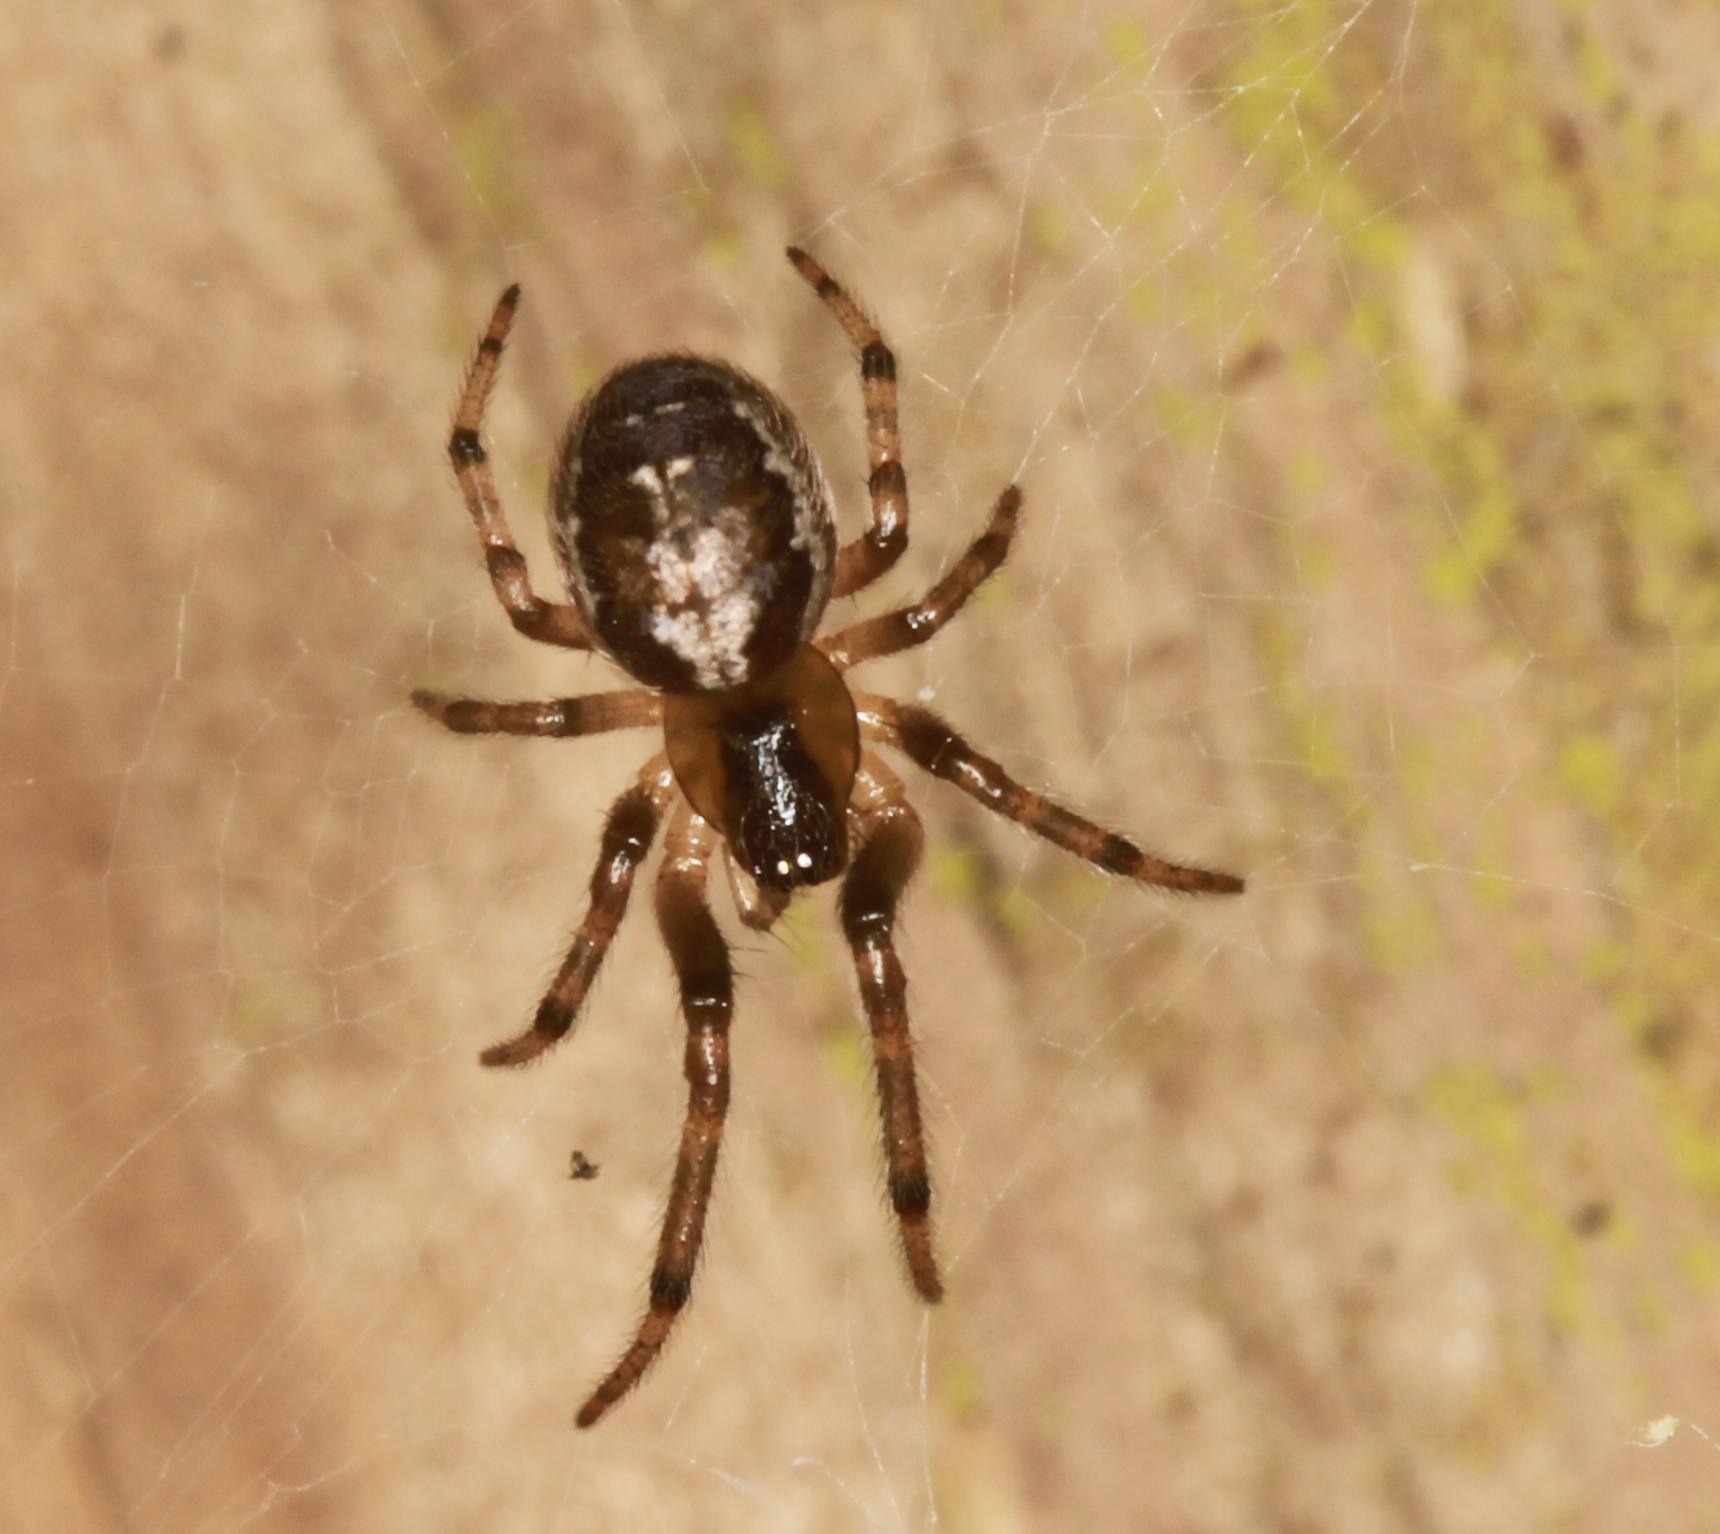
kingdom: Animalia
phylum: Arthropoda
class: Arachnida
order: Araneae
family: Araneidae
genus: Zygiella
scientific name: Zygiella x-notata
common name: Grå sektoredderkop
